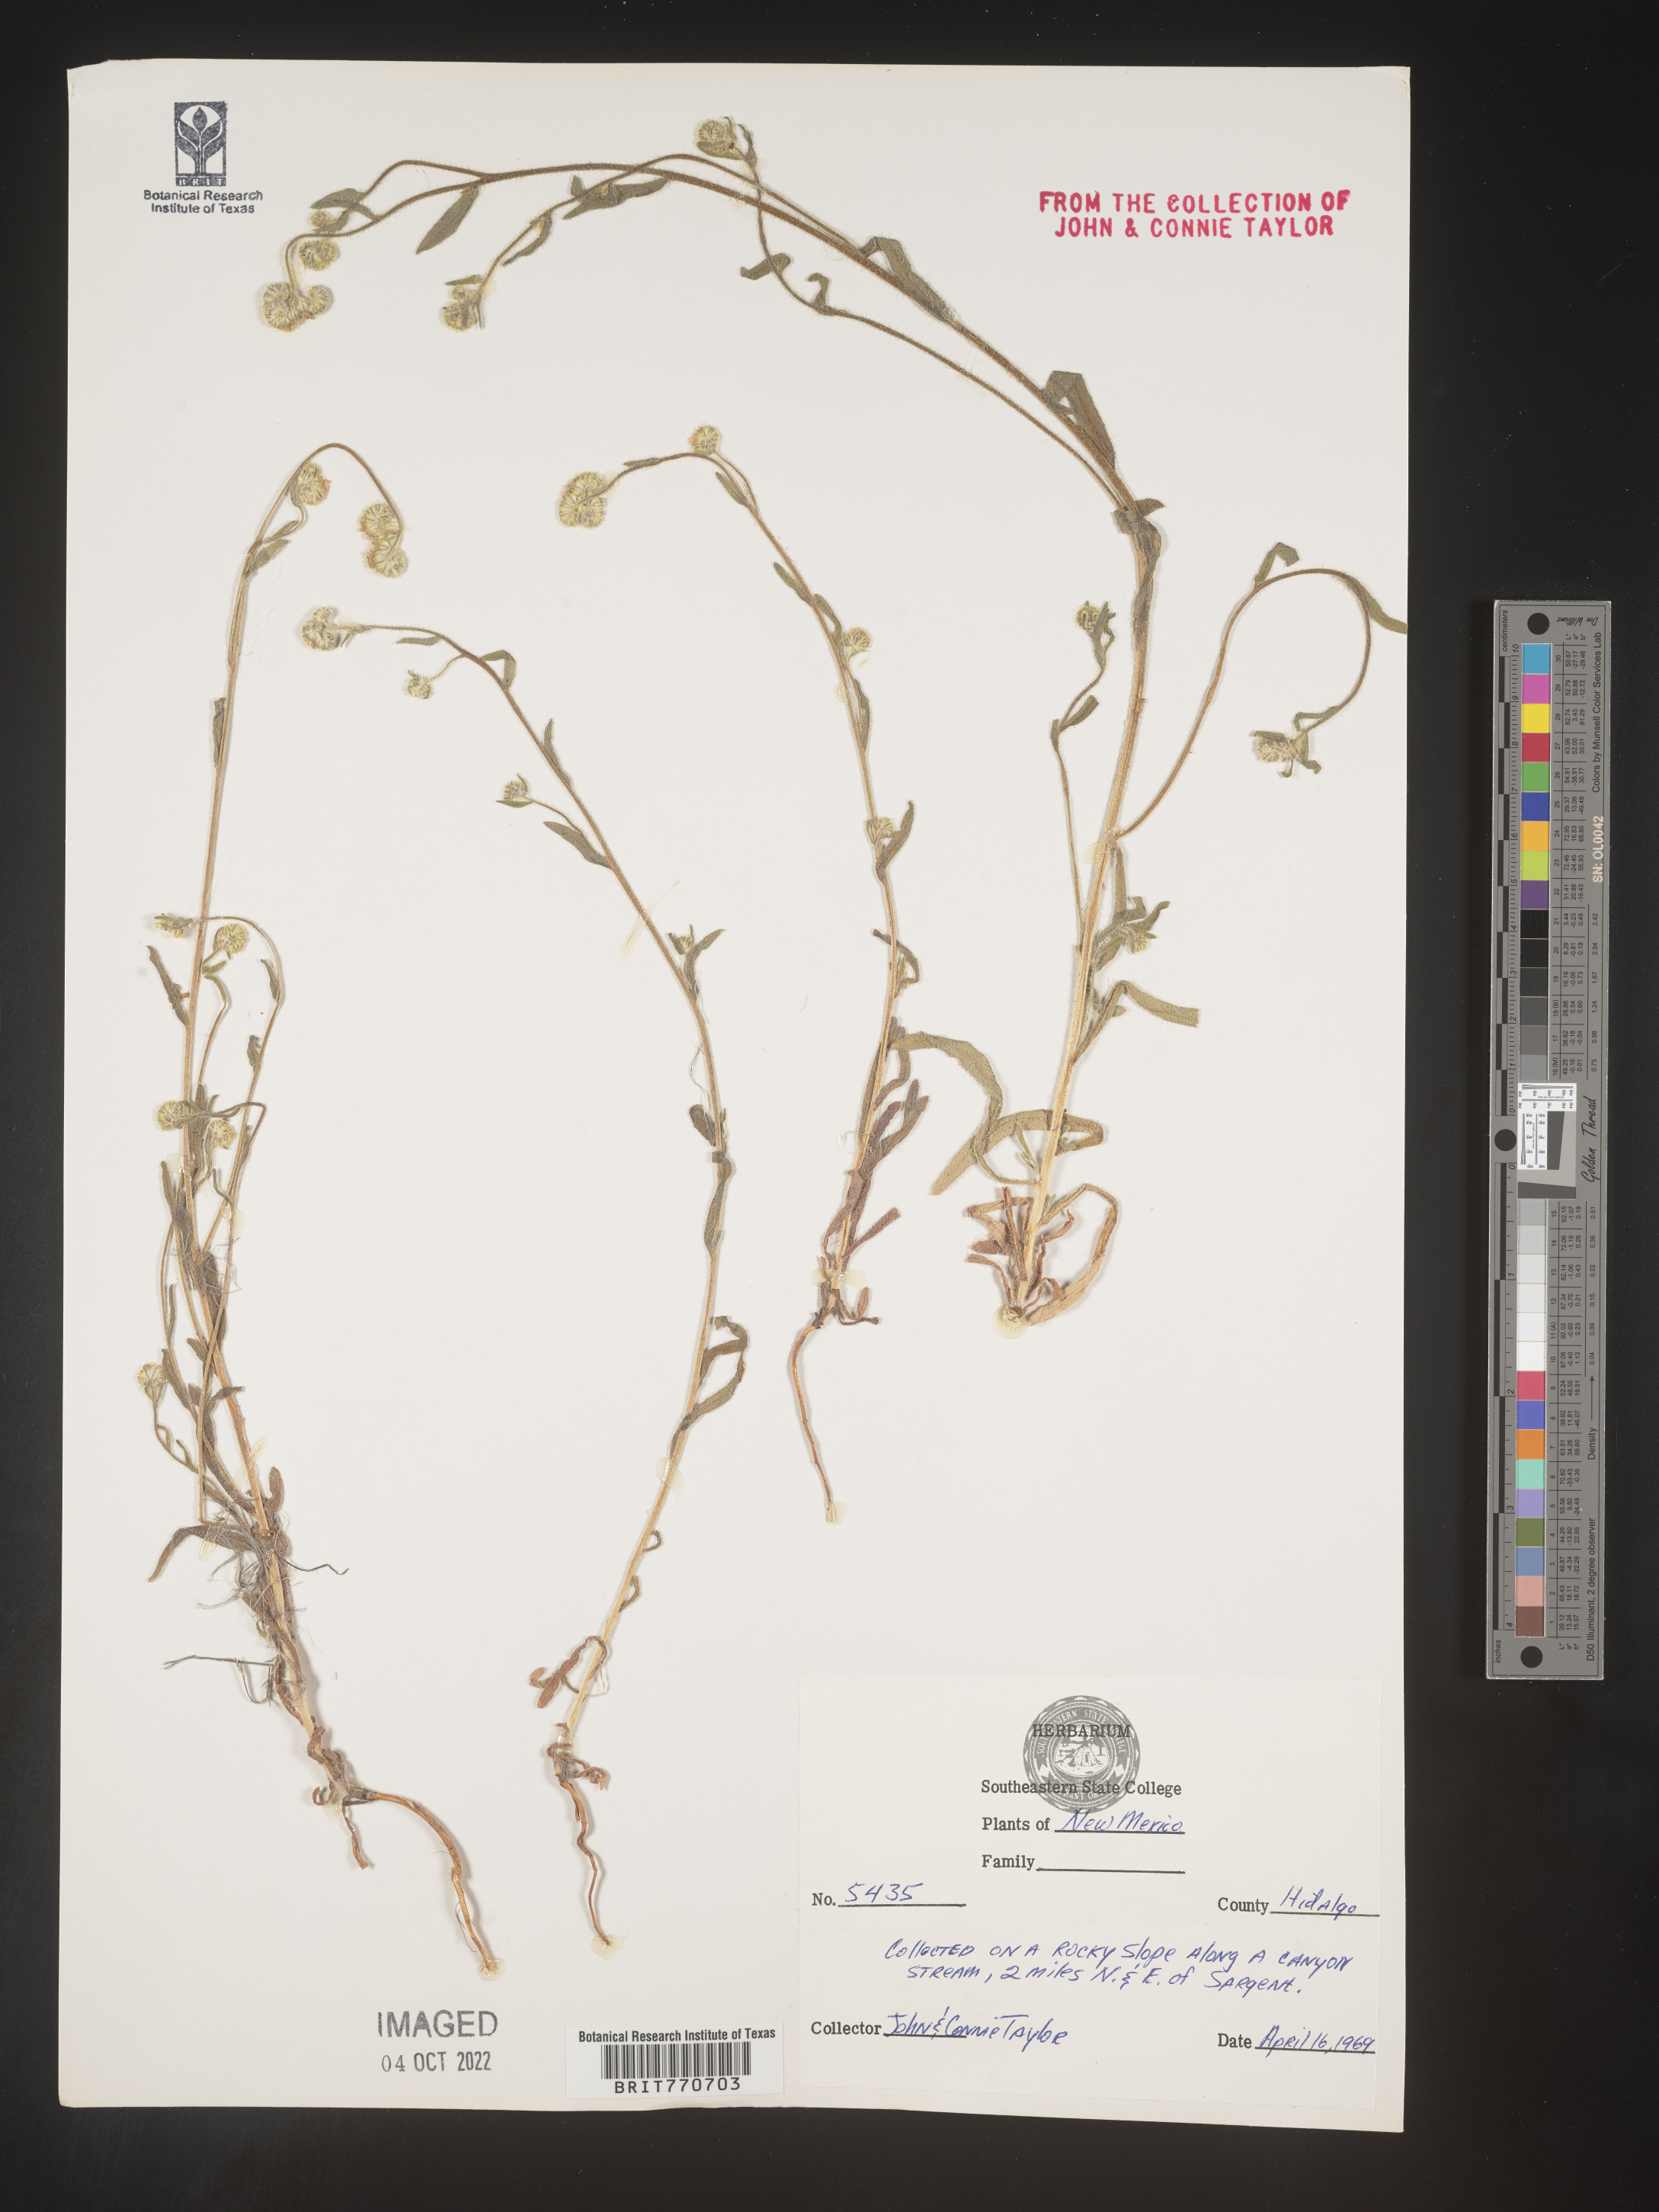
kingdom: Plantae
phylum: Tracheophyta
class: Magnoliopsida
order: Boraginales
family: Boraginaceae
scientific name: Boraginaceae
